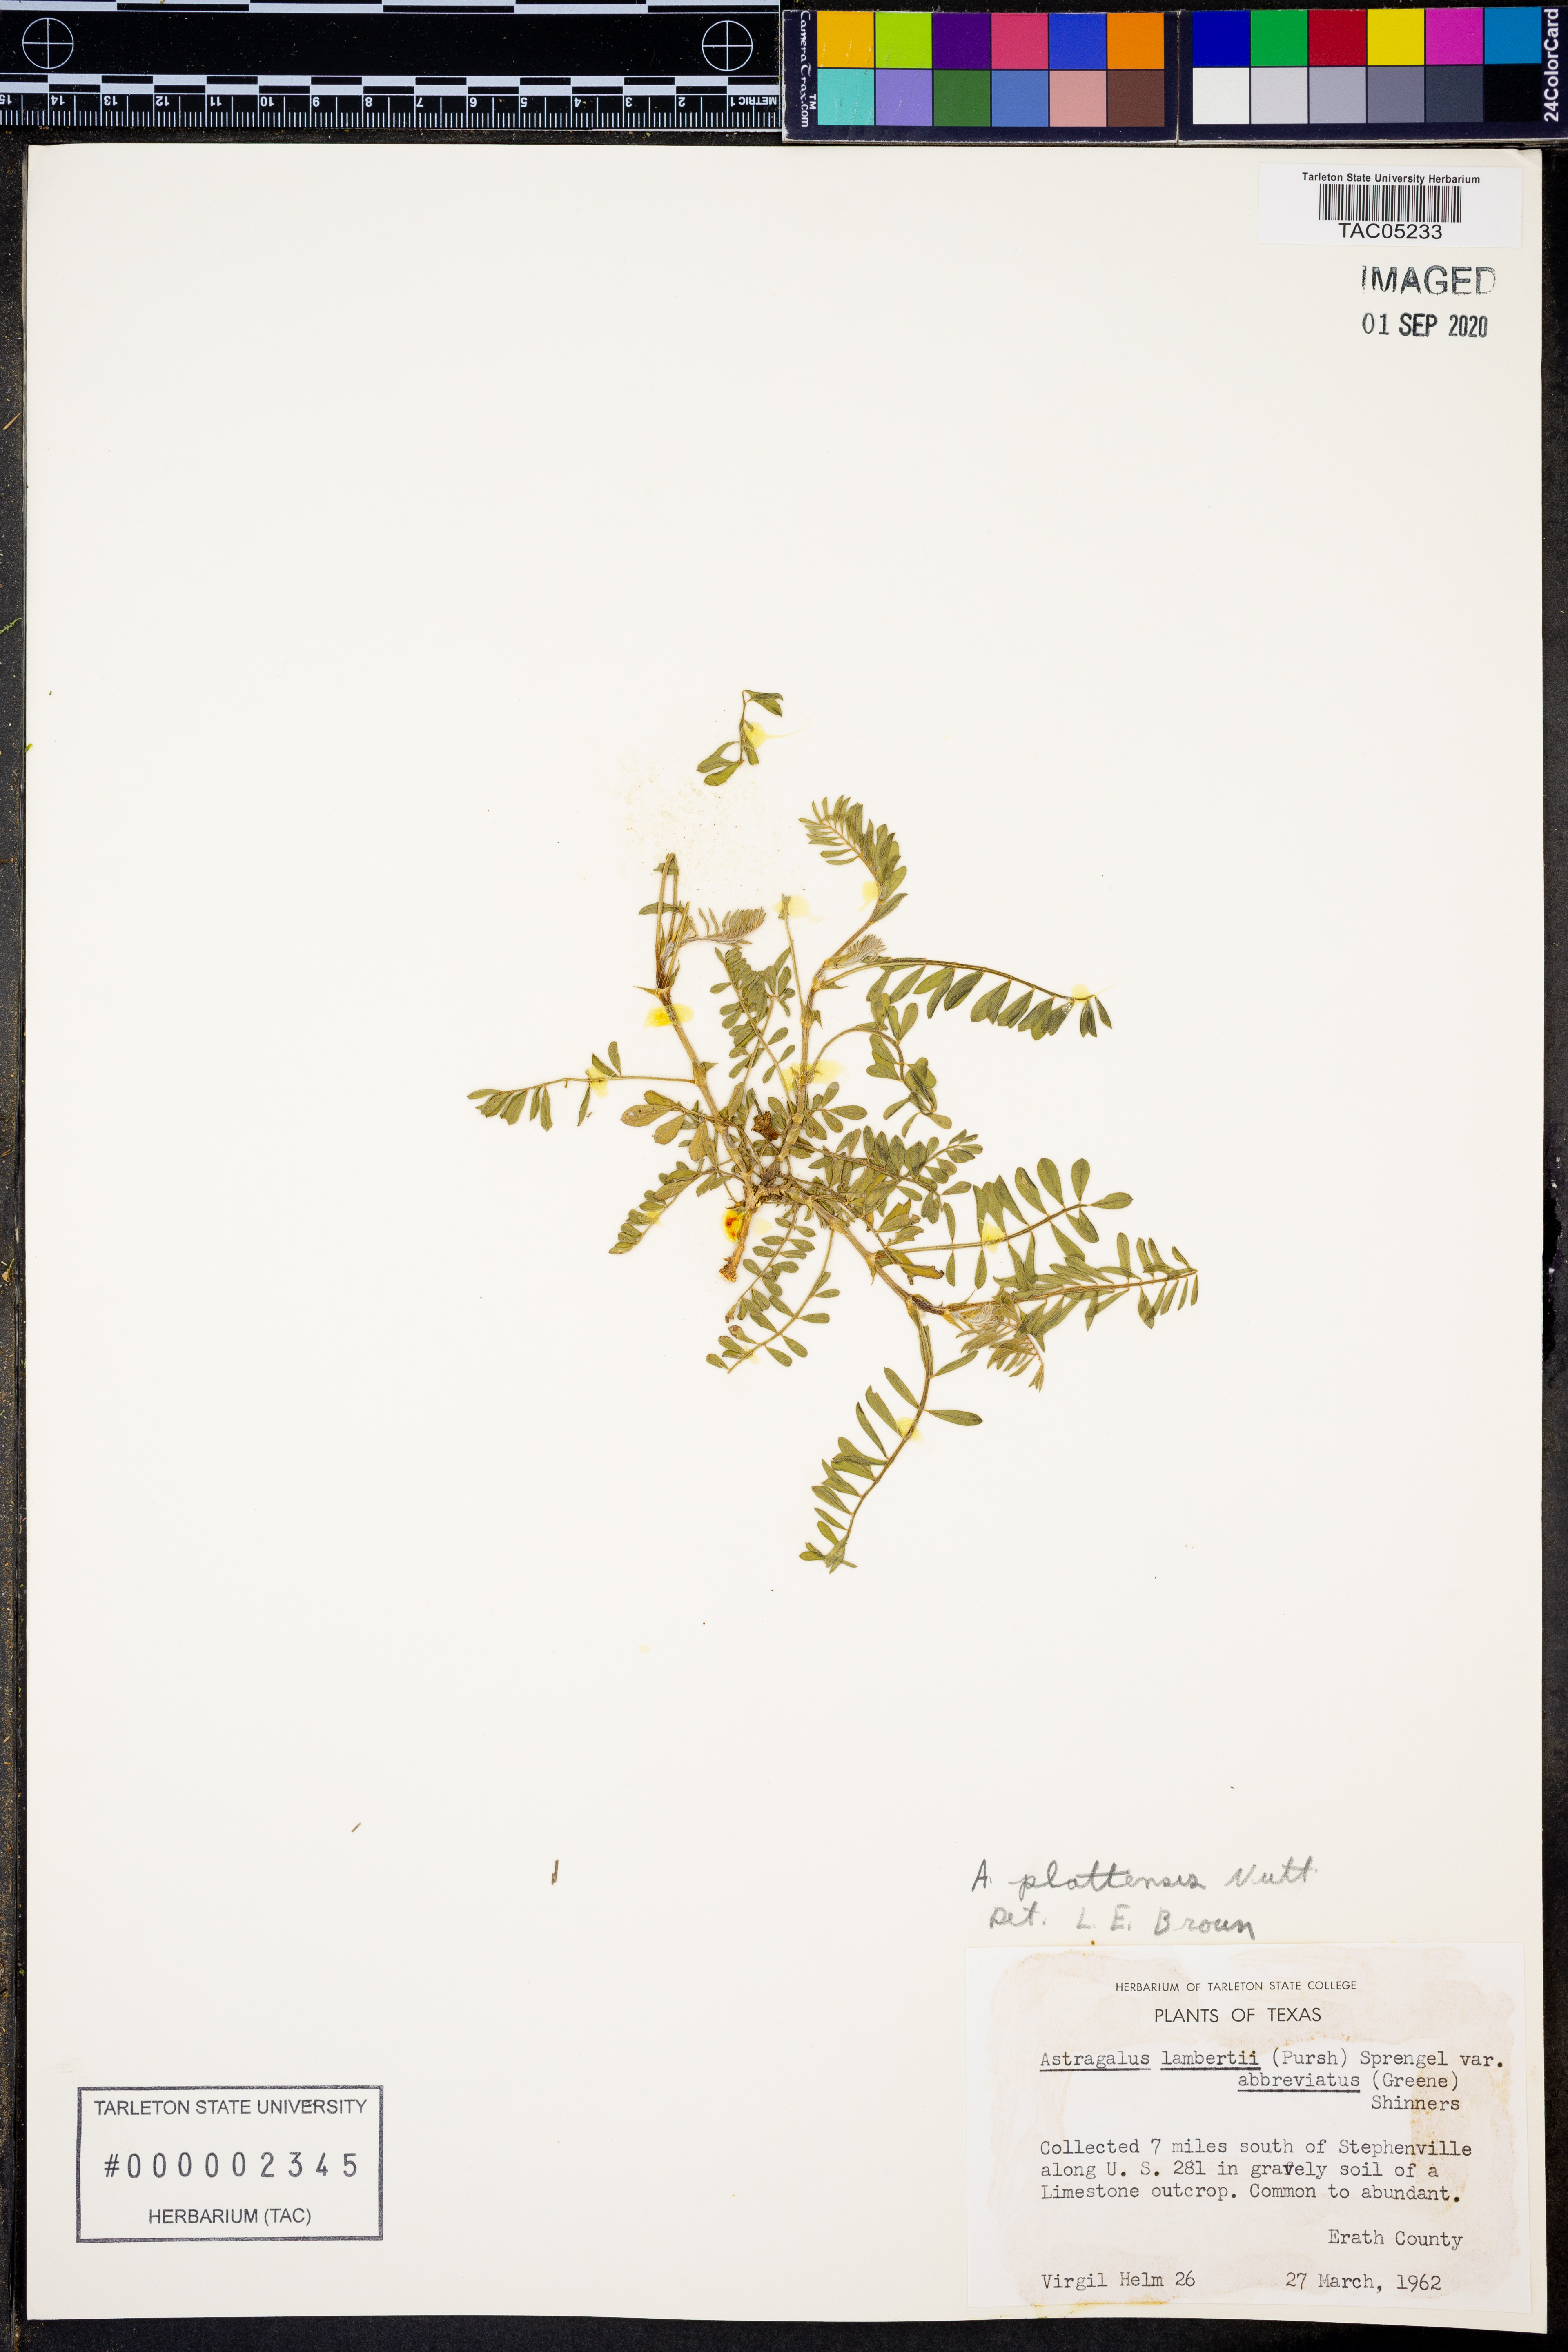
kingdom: Plantae
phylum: Tracheophyta
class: Magnoliopsida
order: Fabales
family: Fabaceae
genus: Astragalus
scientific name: Astragalus plattensis
